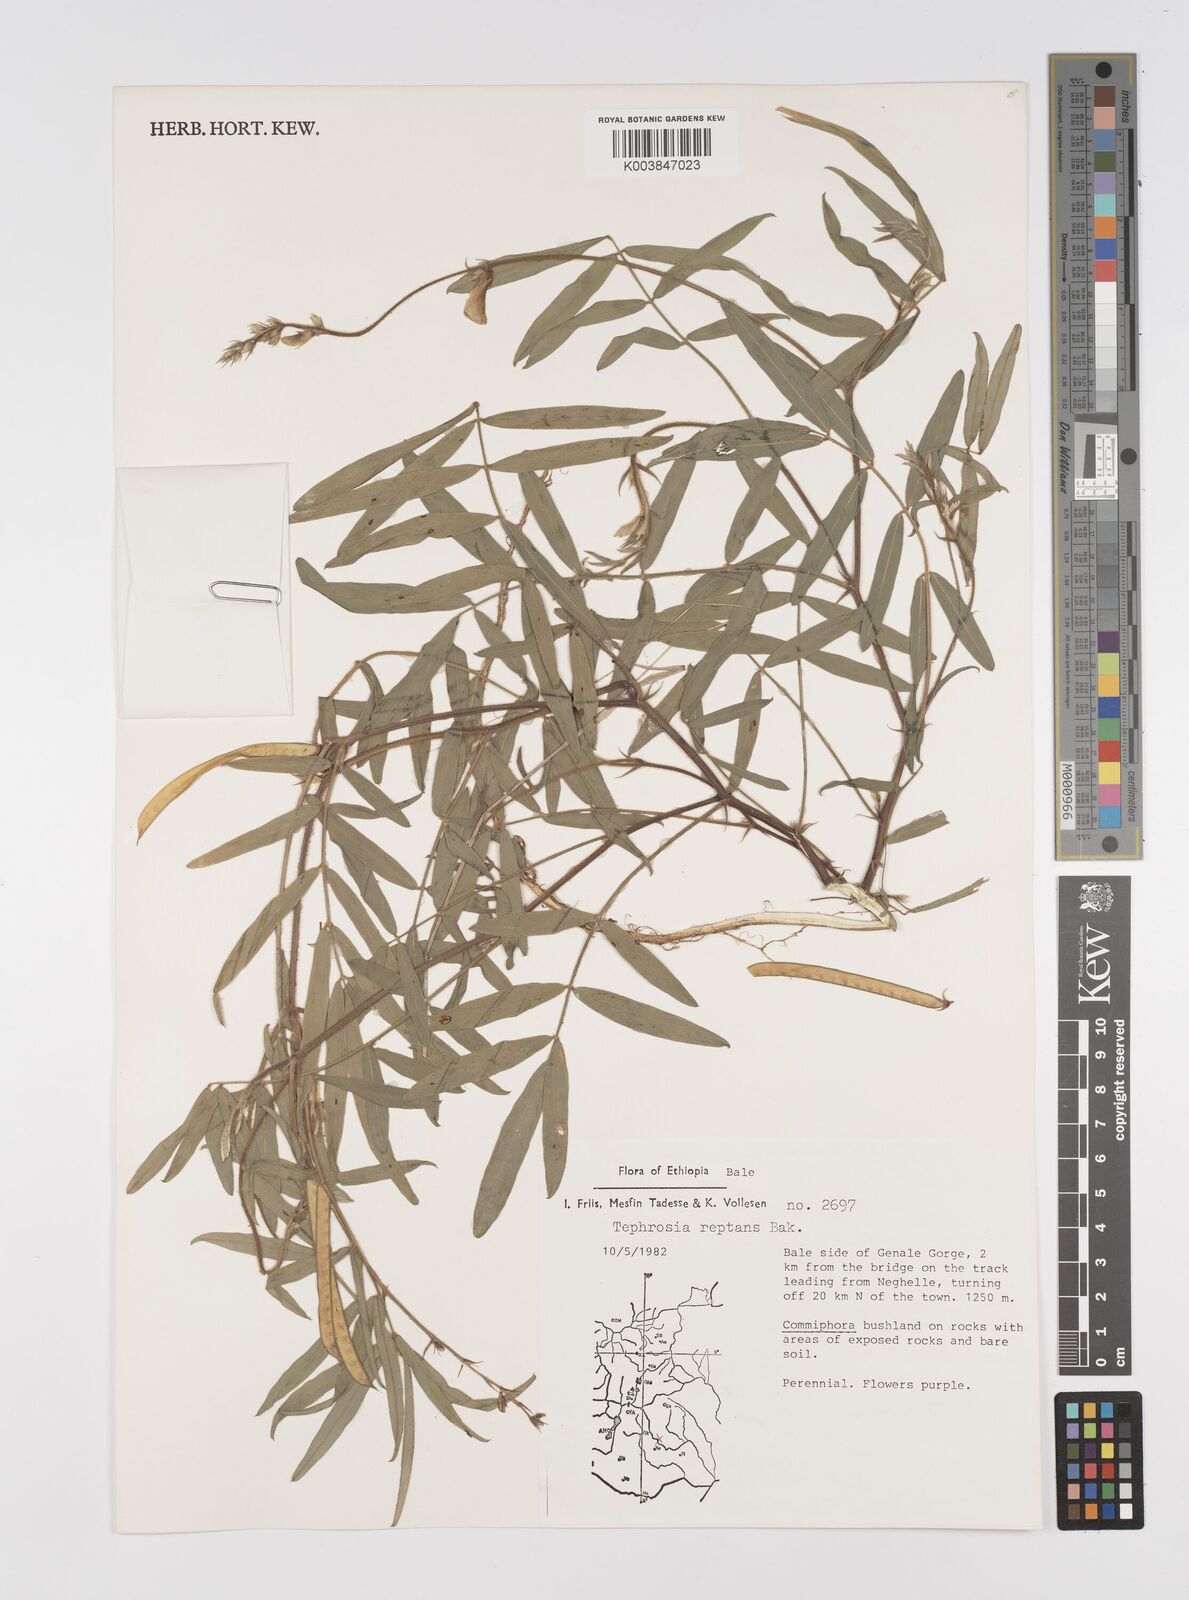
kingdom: Plantae
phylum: Tracheophyta
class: Magnoliopsida
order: Fabales
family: Fabaceae
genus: Tephrosia
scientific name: Tephrosia reptans
